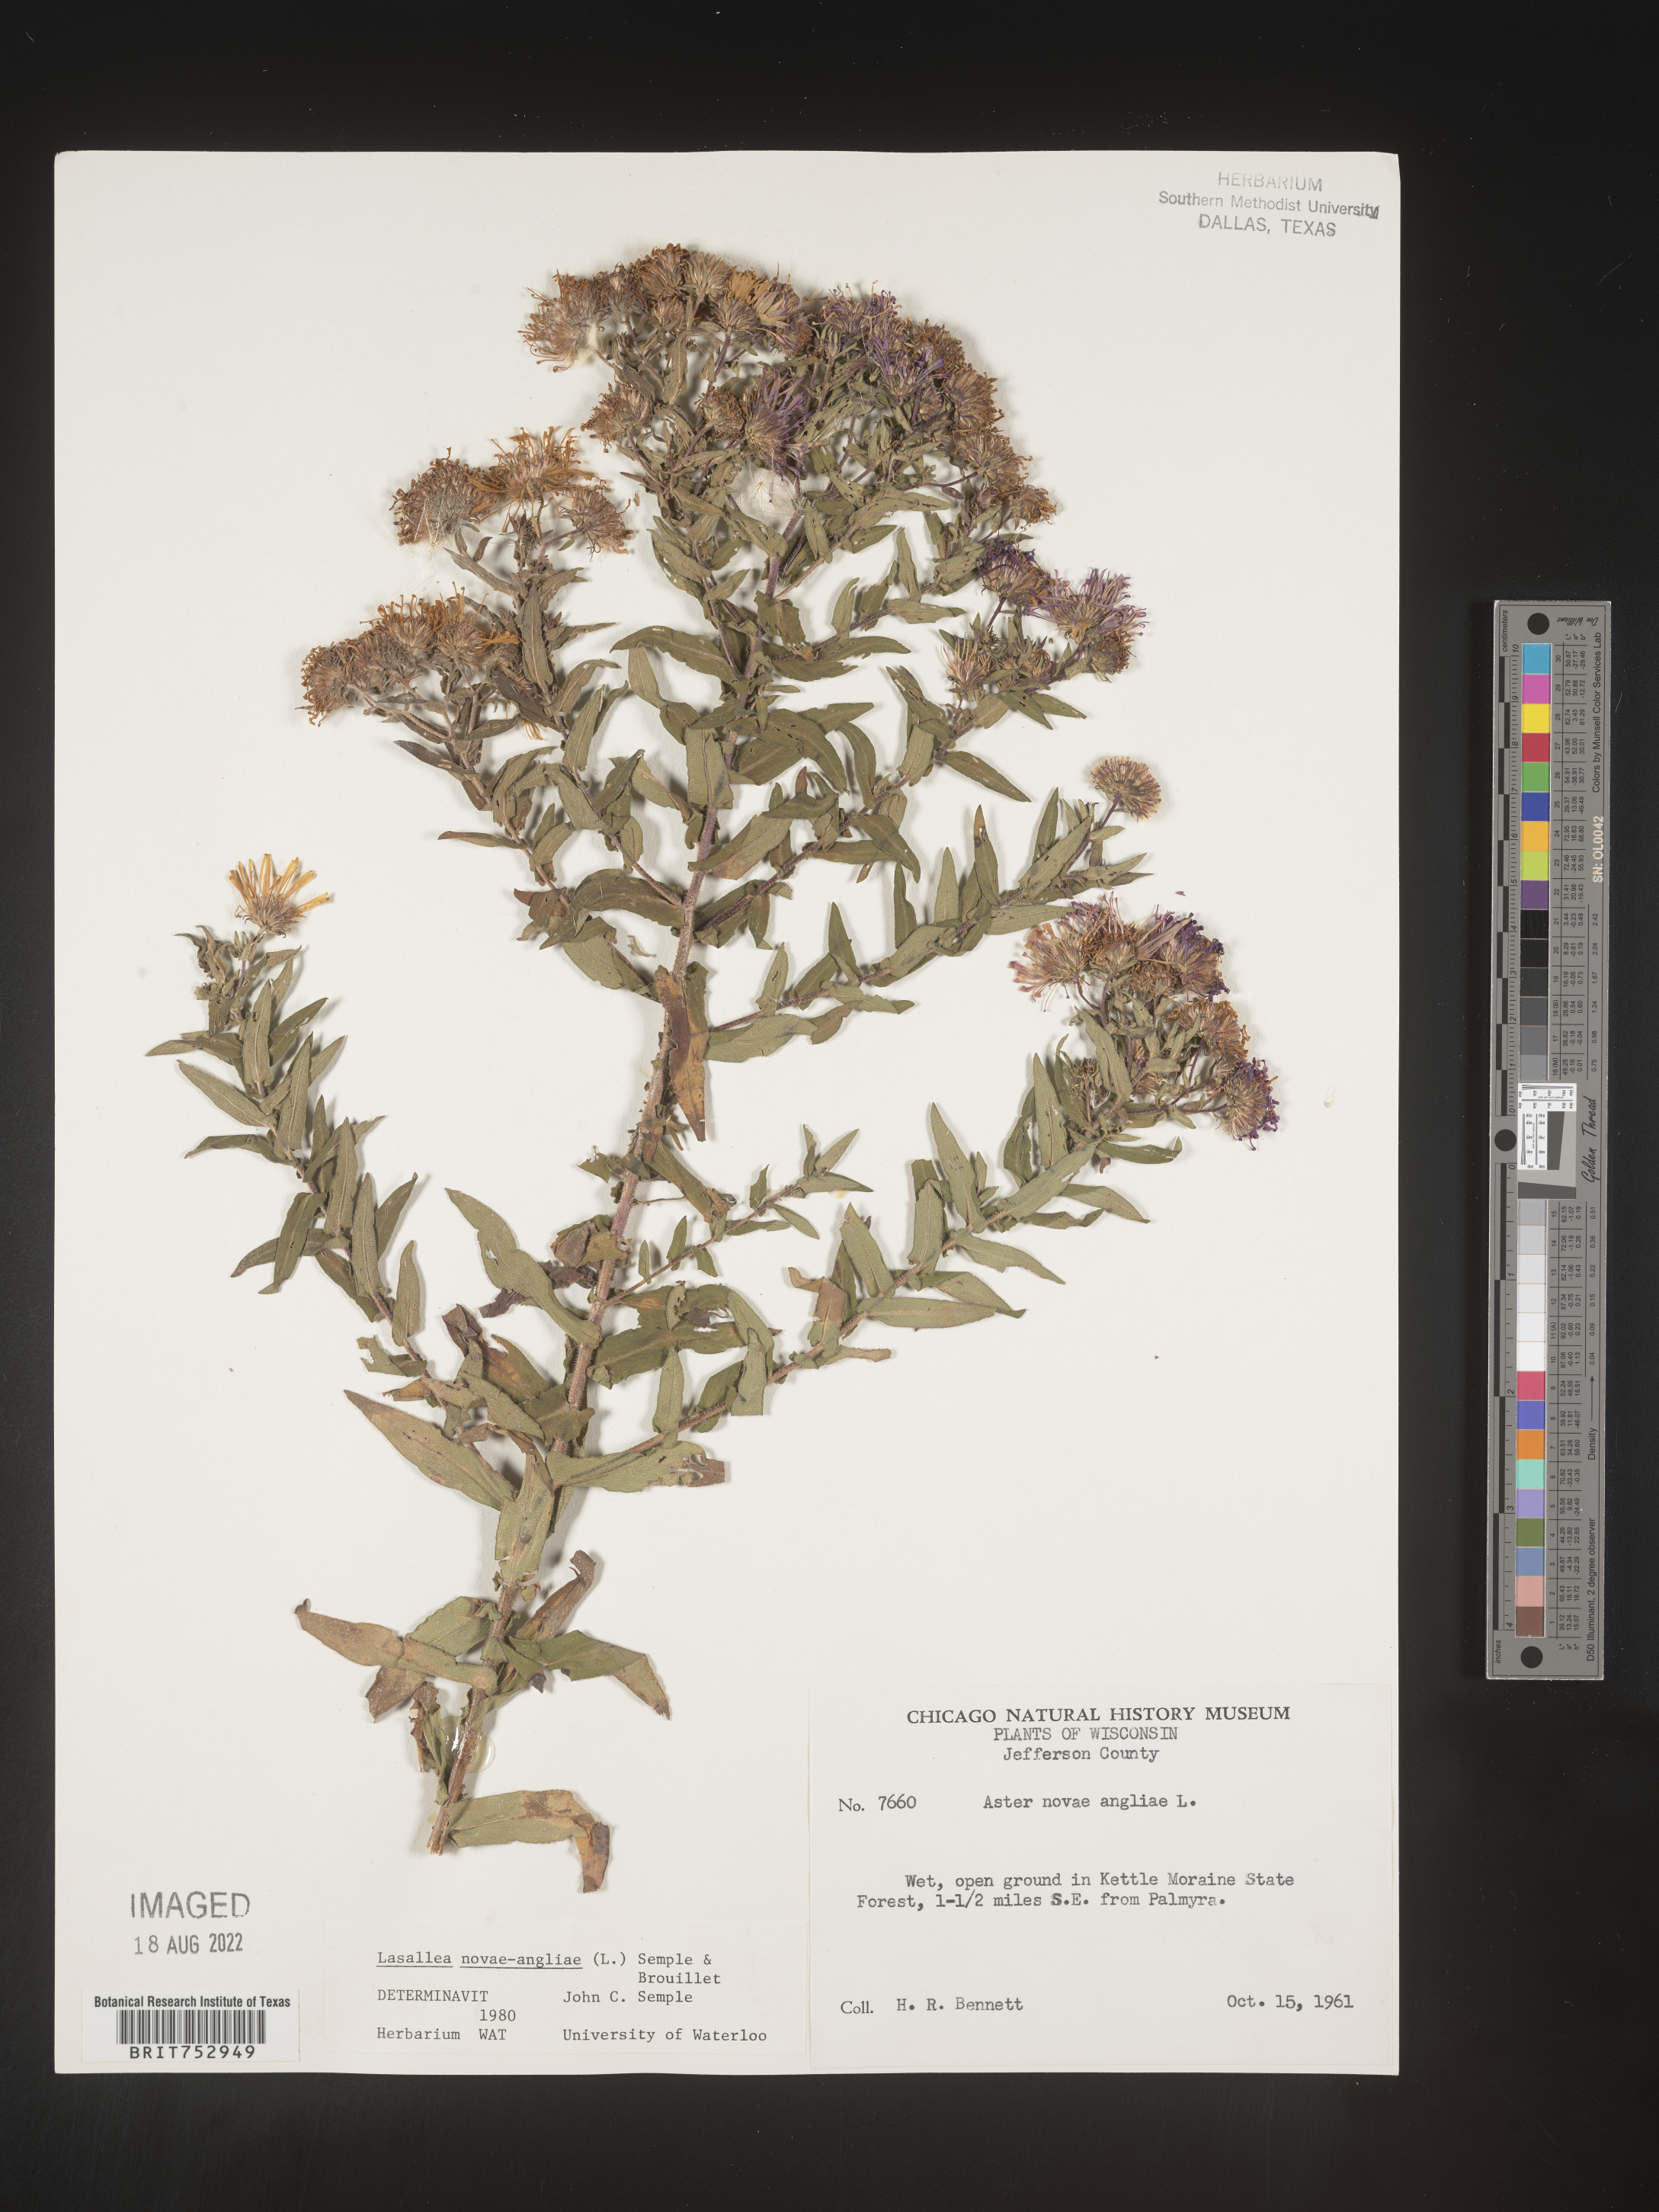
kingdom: Plantae
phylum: Tracheophyta
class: Magnoliopsida
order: Asterales
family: Asteraceae
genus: Symphyotrichum
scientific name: Symphyotrichum novae-angliae
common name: Michaelmas daisy
